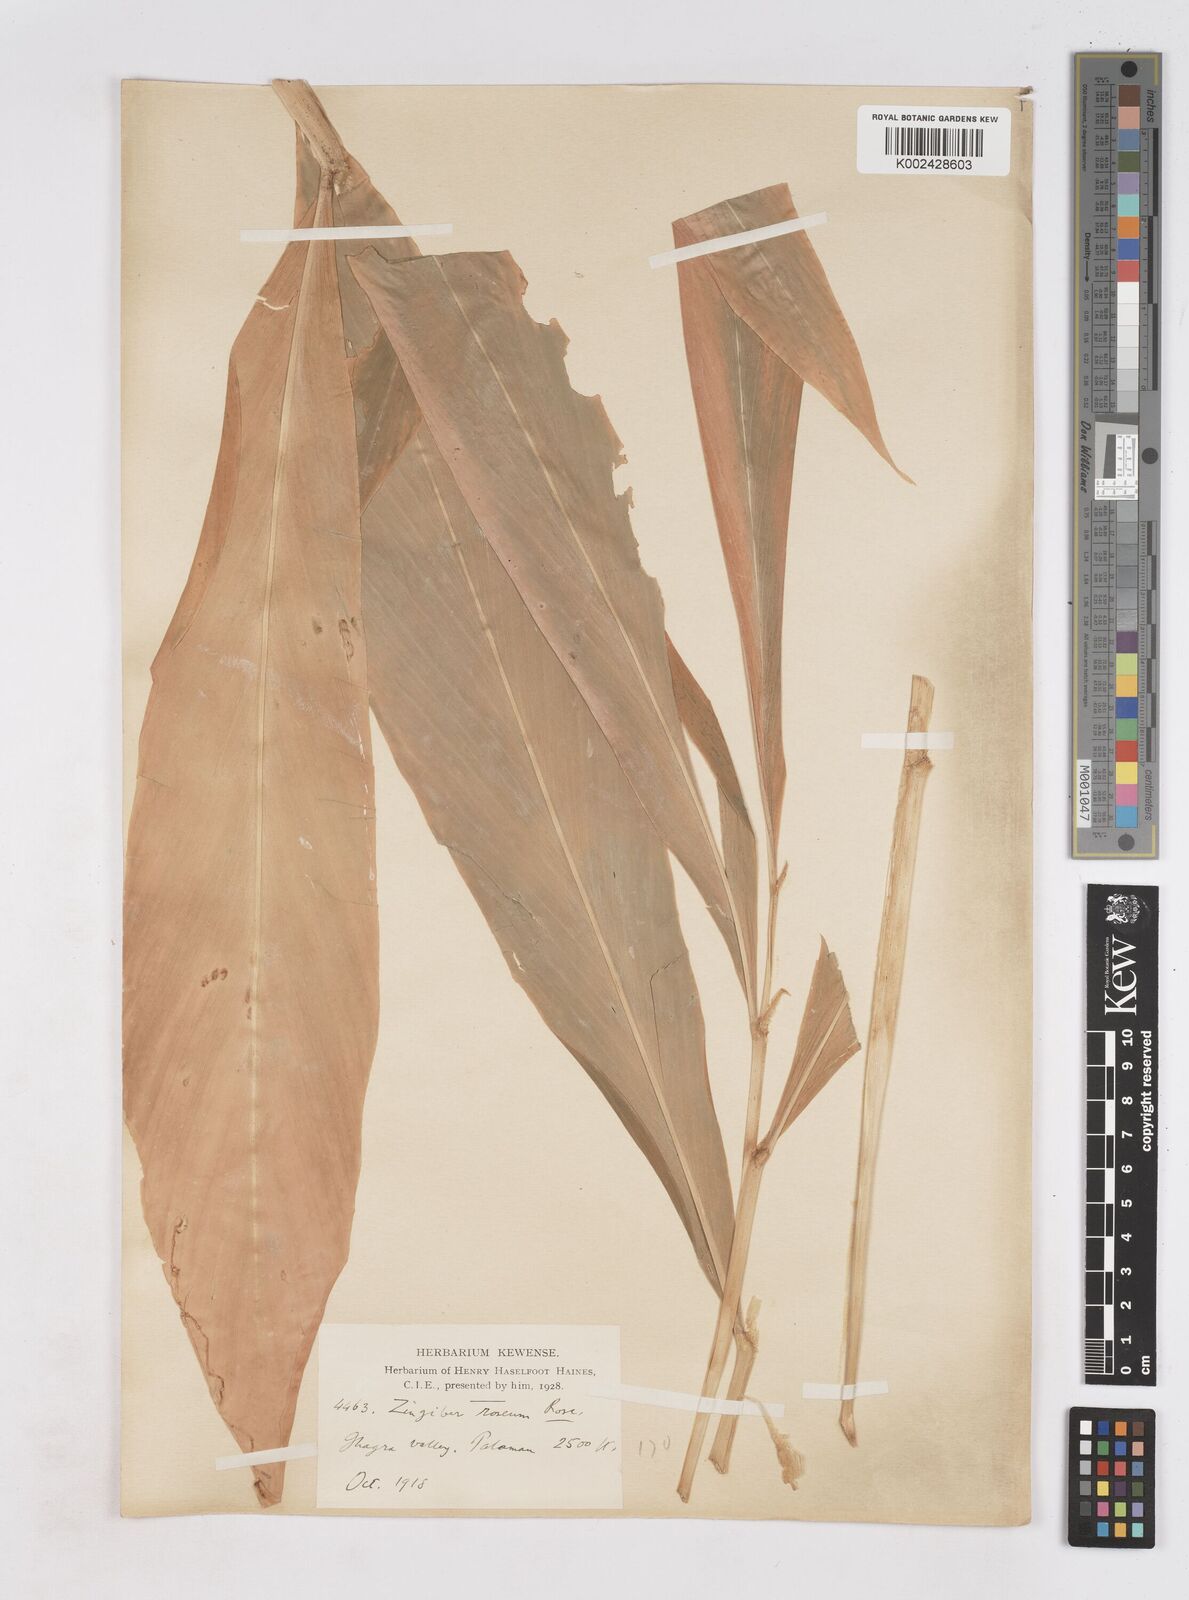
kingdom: Plantae
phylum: Tracheophyta
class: Liliopsida
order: Zingiberales
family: Zingiberaceae
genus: Zingiber
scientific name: Zingiber roseum
